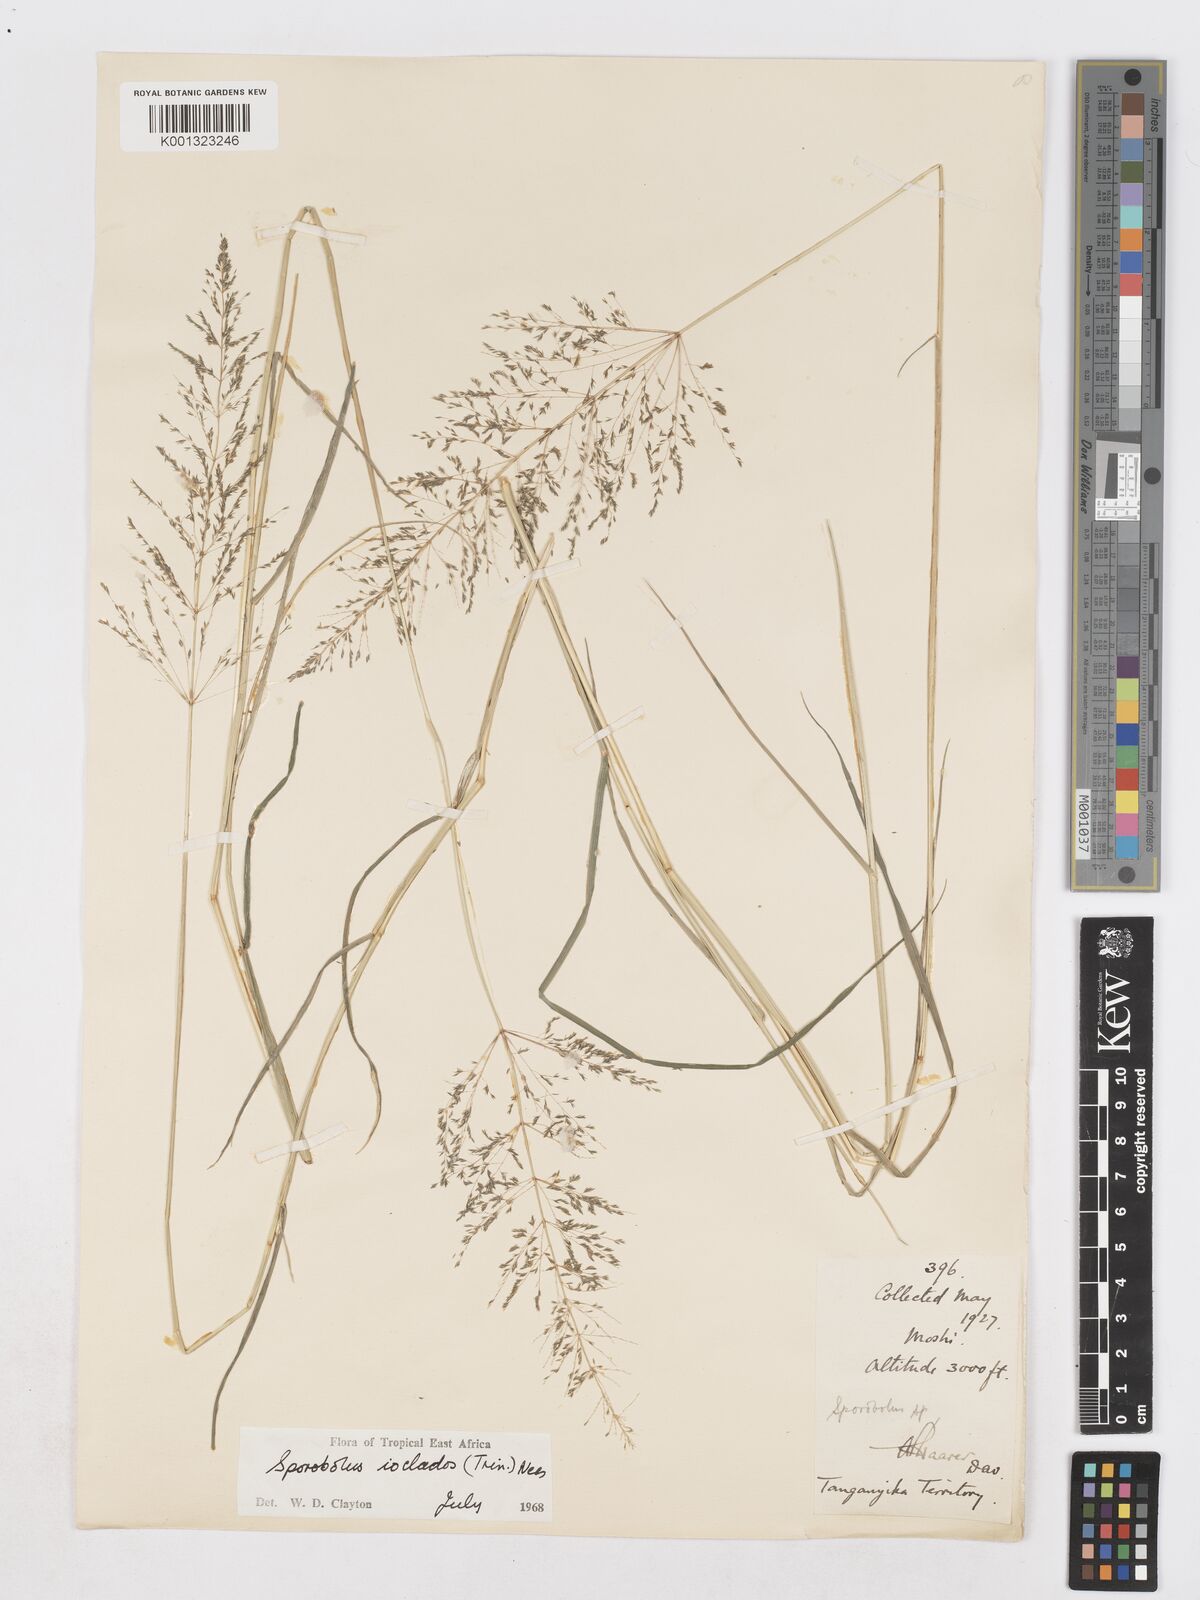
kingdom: Plantae
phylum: Tracheophyta
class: Liliopsida
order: Poales
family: Poaceae
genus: Sporobolus
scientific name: Sporobolus ioclados
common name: Pan dropseed
